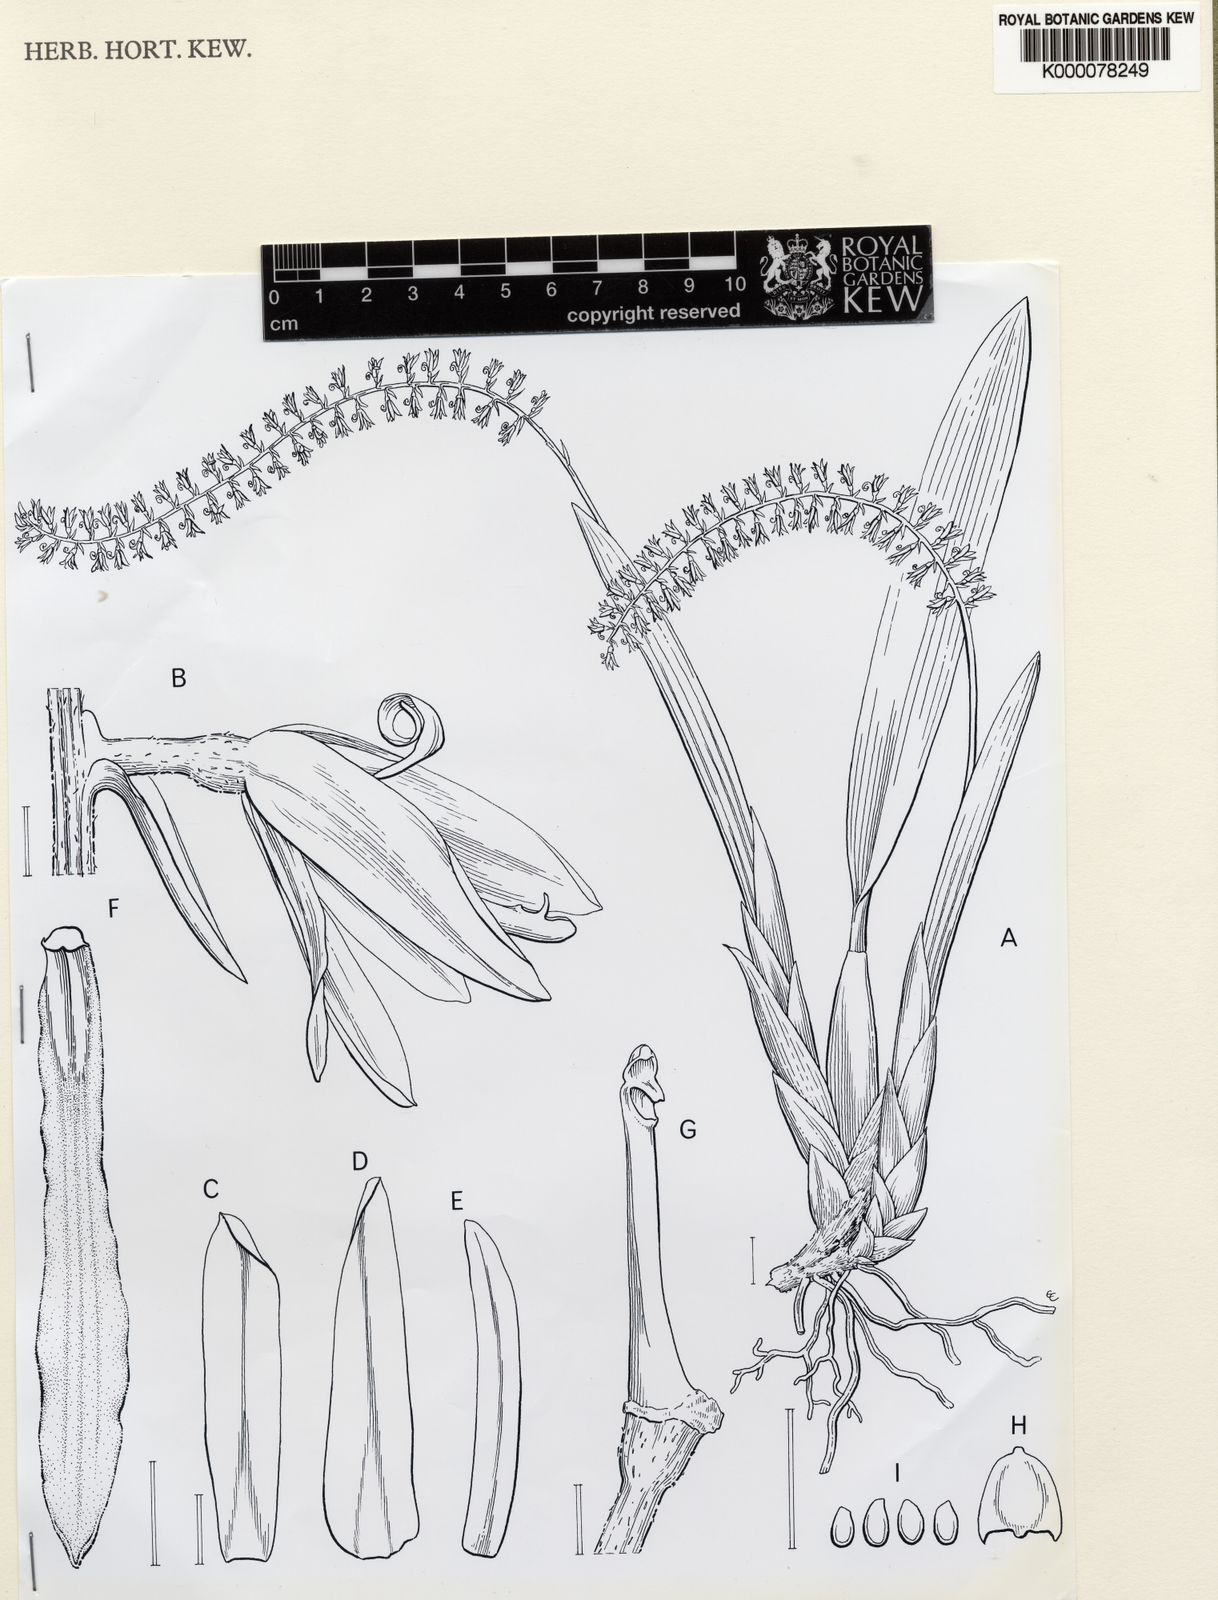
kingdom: Plantae
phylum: Tracheophyta
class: Liliopsida
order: Asparagales
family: Orchidaceae
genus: Coelogyne
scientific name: Coelogyne mirabilis
